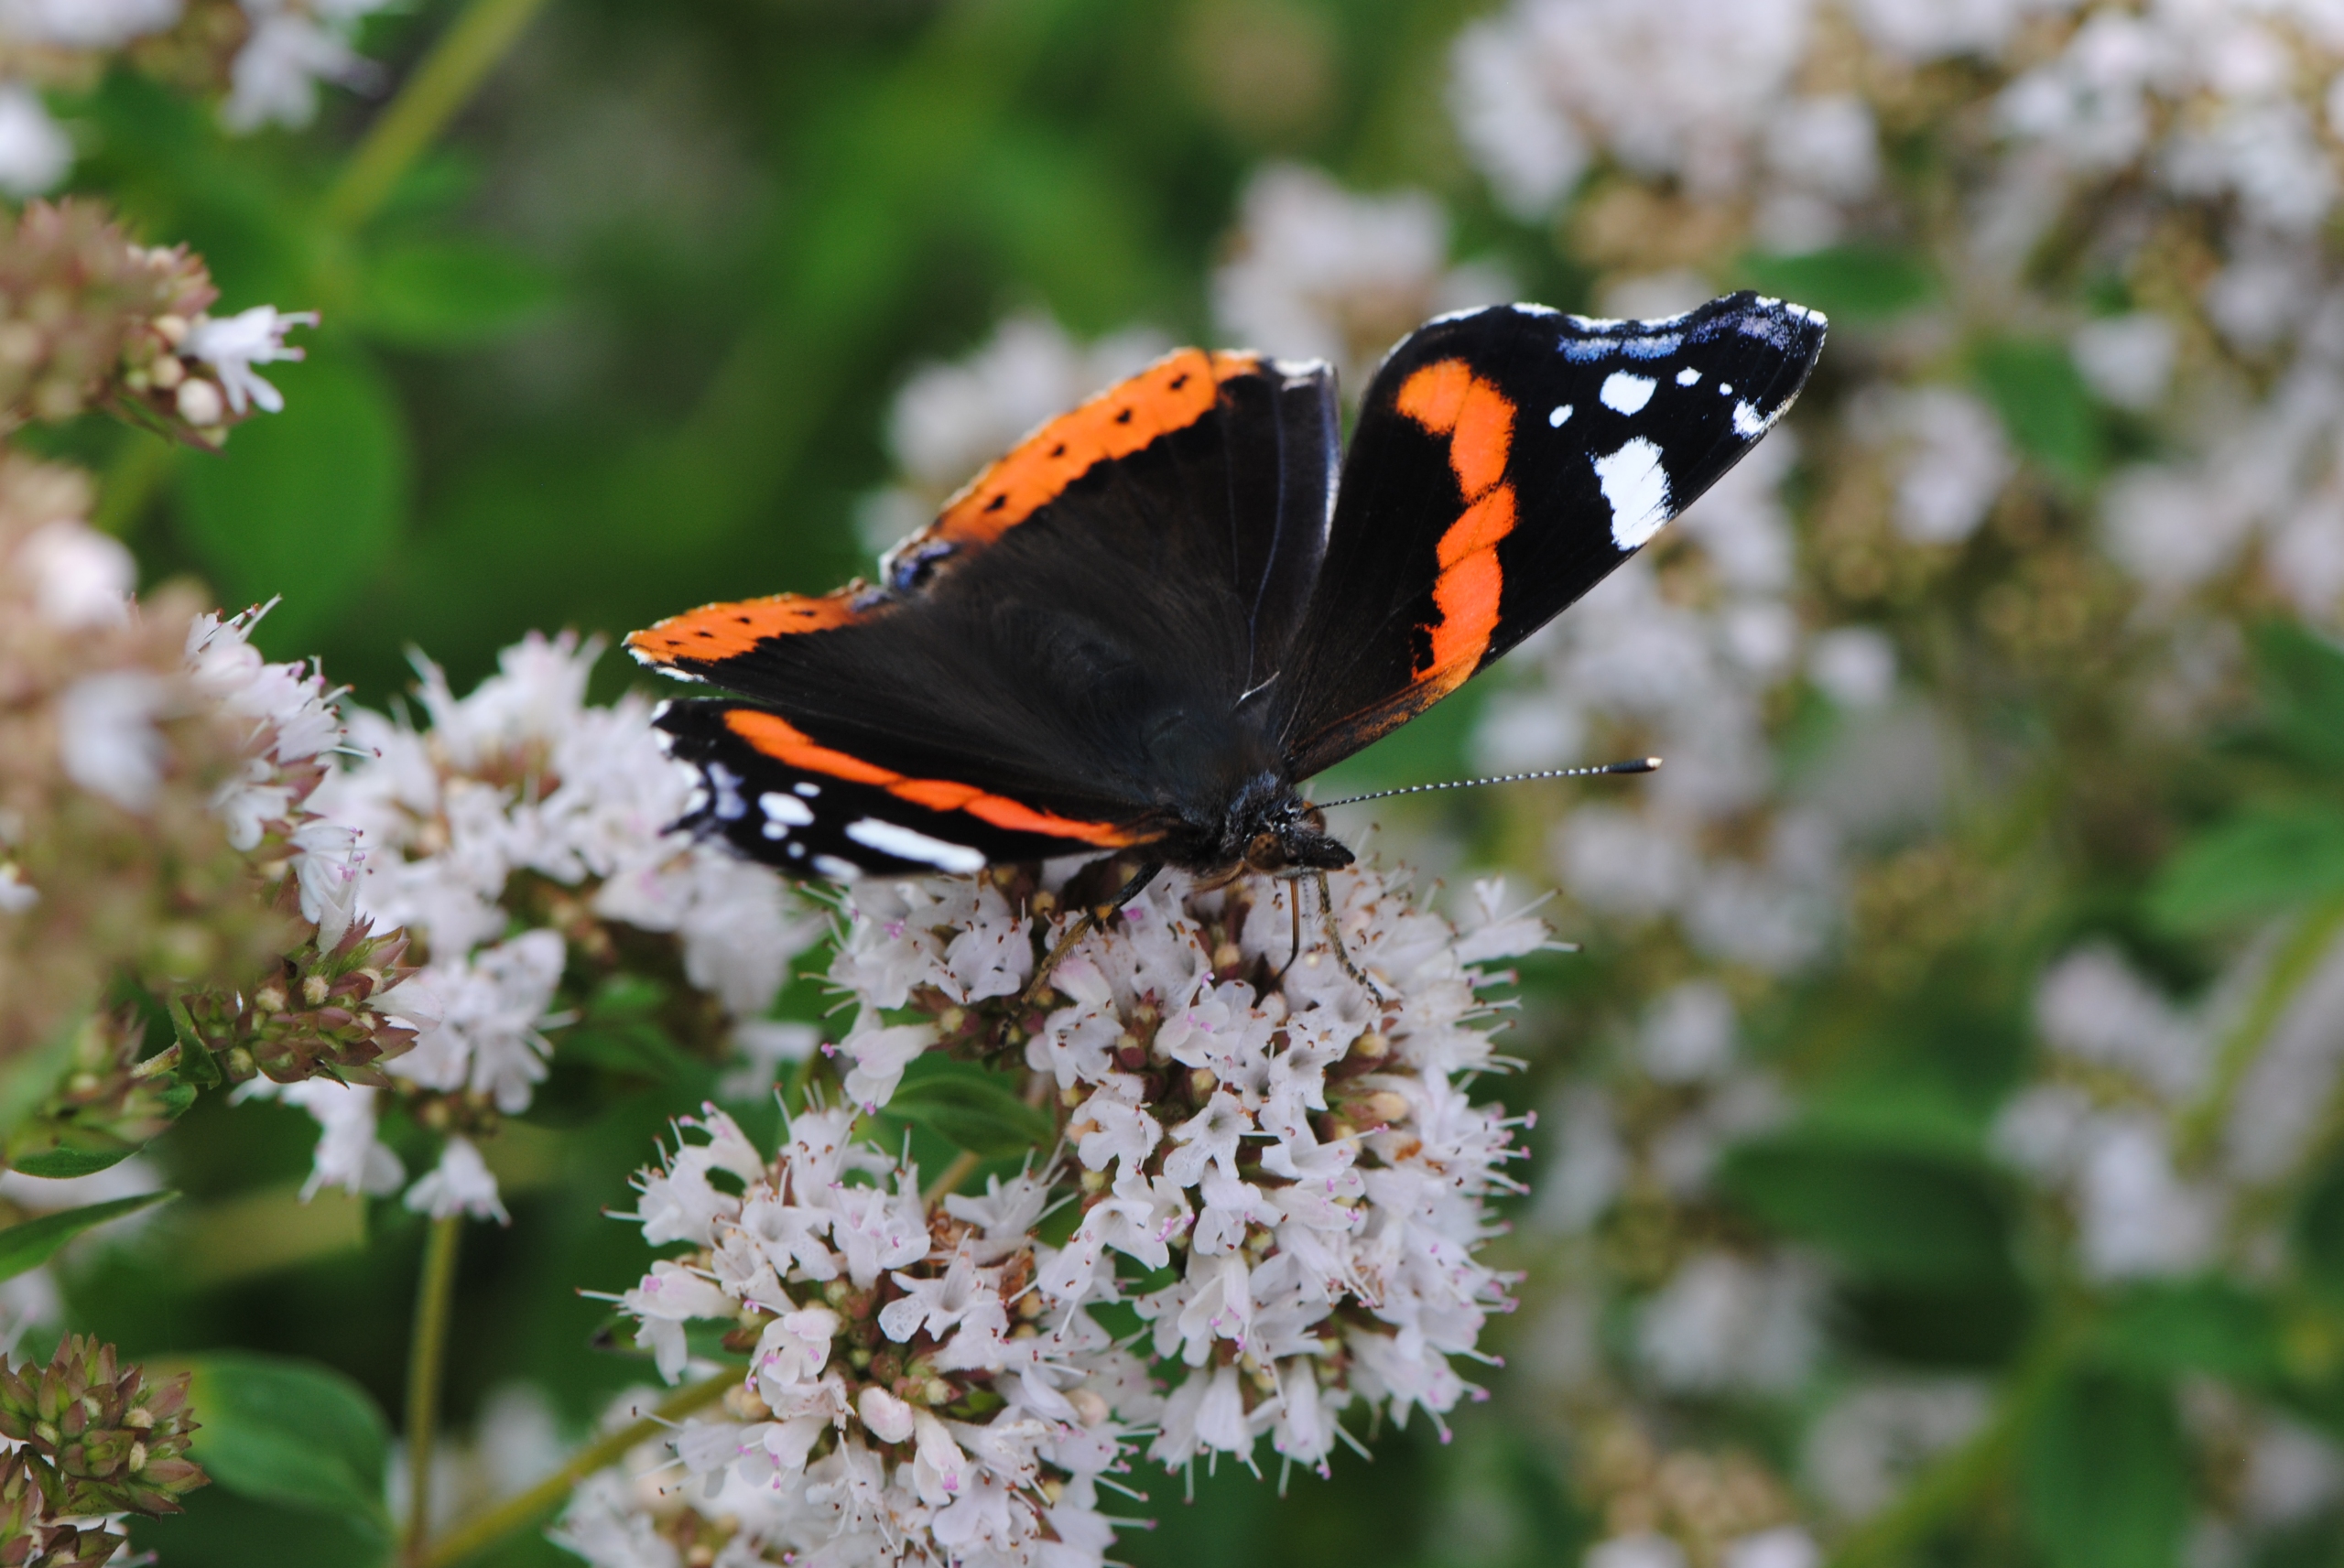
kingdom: Animalia
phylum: Arthropoda
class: Insecta
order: Lepidoptera
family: Nymphalidae
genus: Vanessa
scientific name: Vanessa atalanta
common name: Admiral
